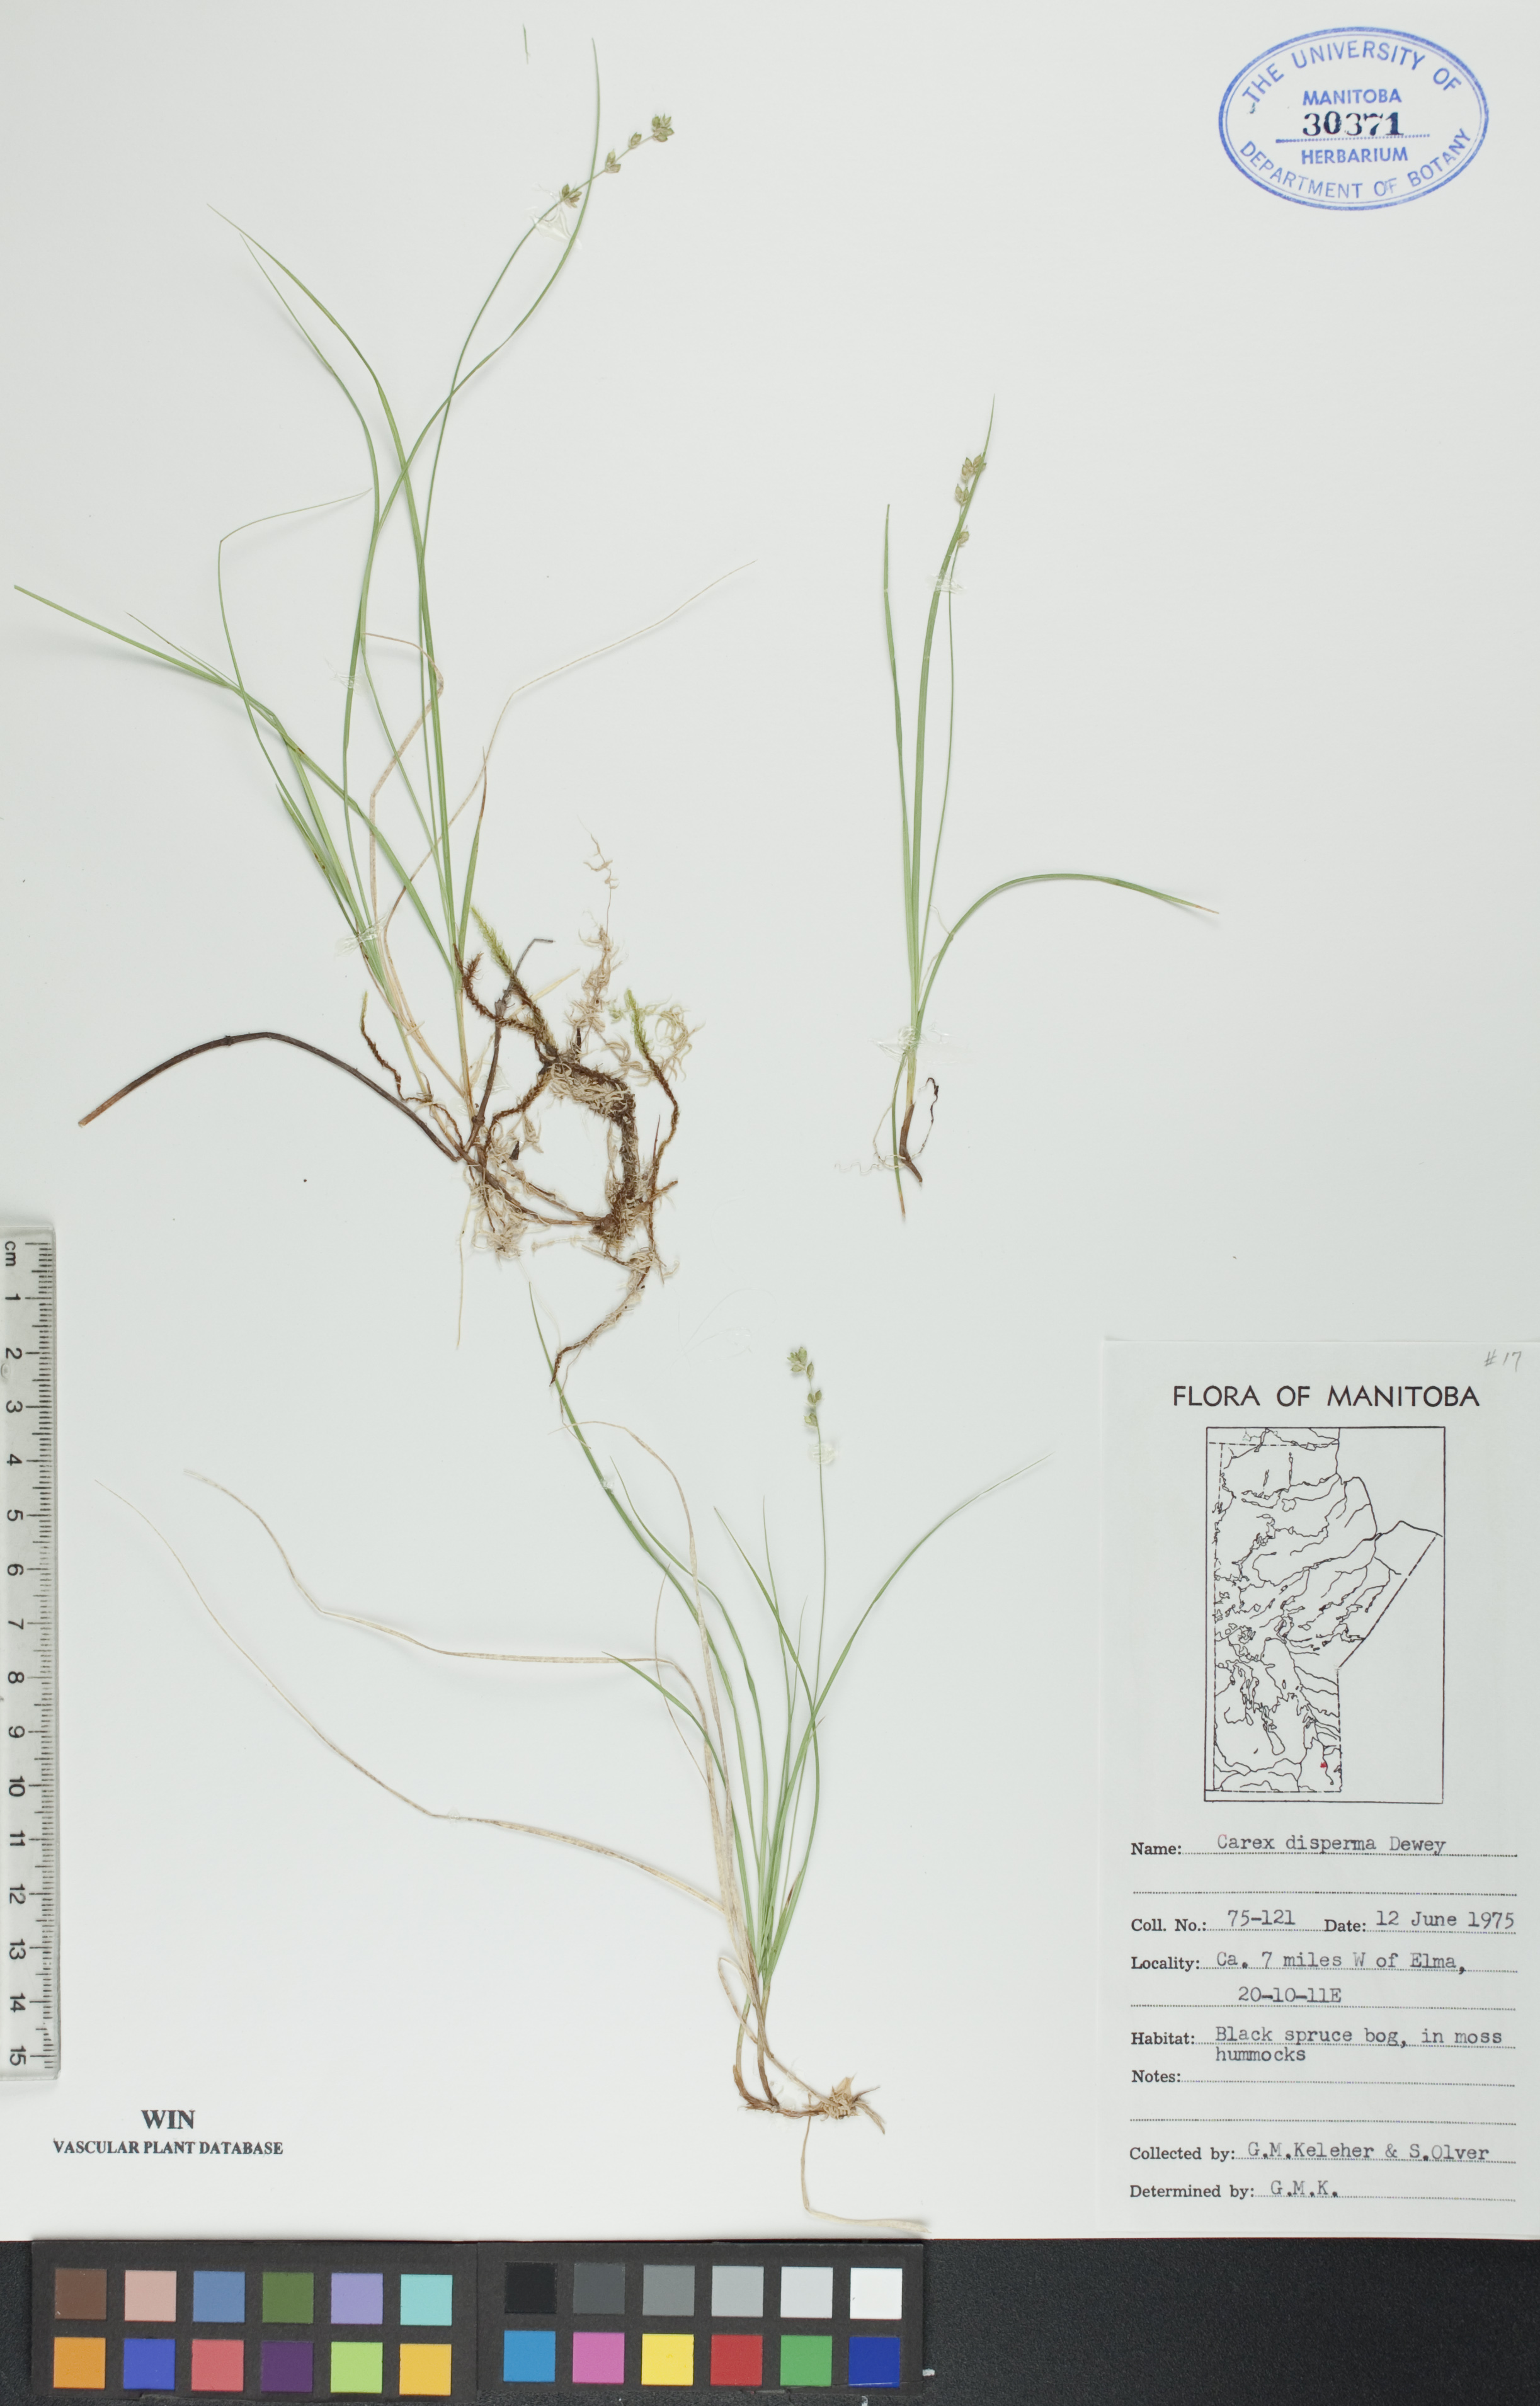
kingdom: Plantae
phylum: Tracheophyta
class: Liliopsida
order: Poales
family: Cyperaceae
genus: Carex
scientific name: Carex disperma
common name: Short-leaved sedge
